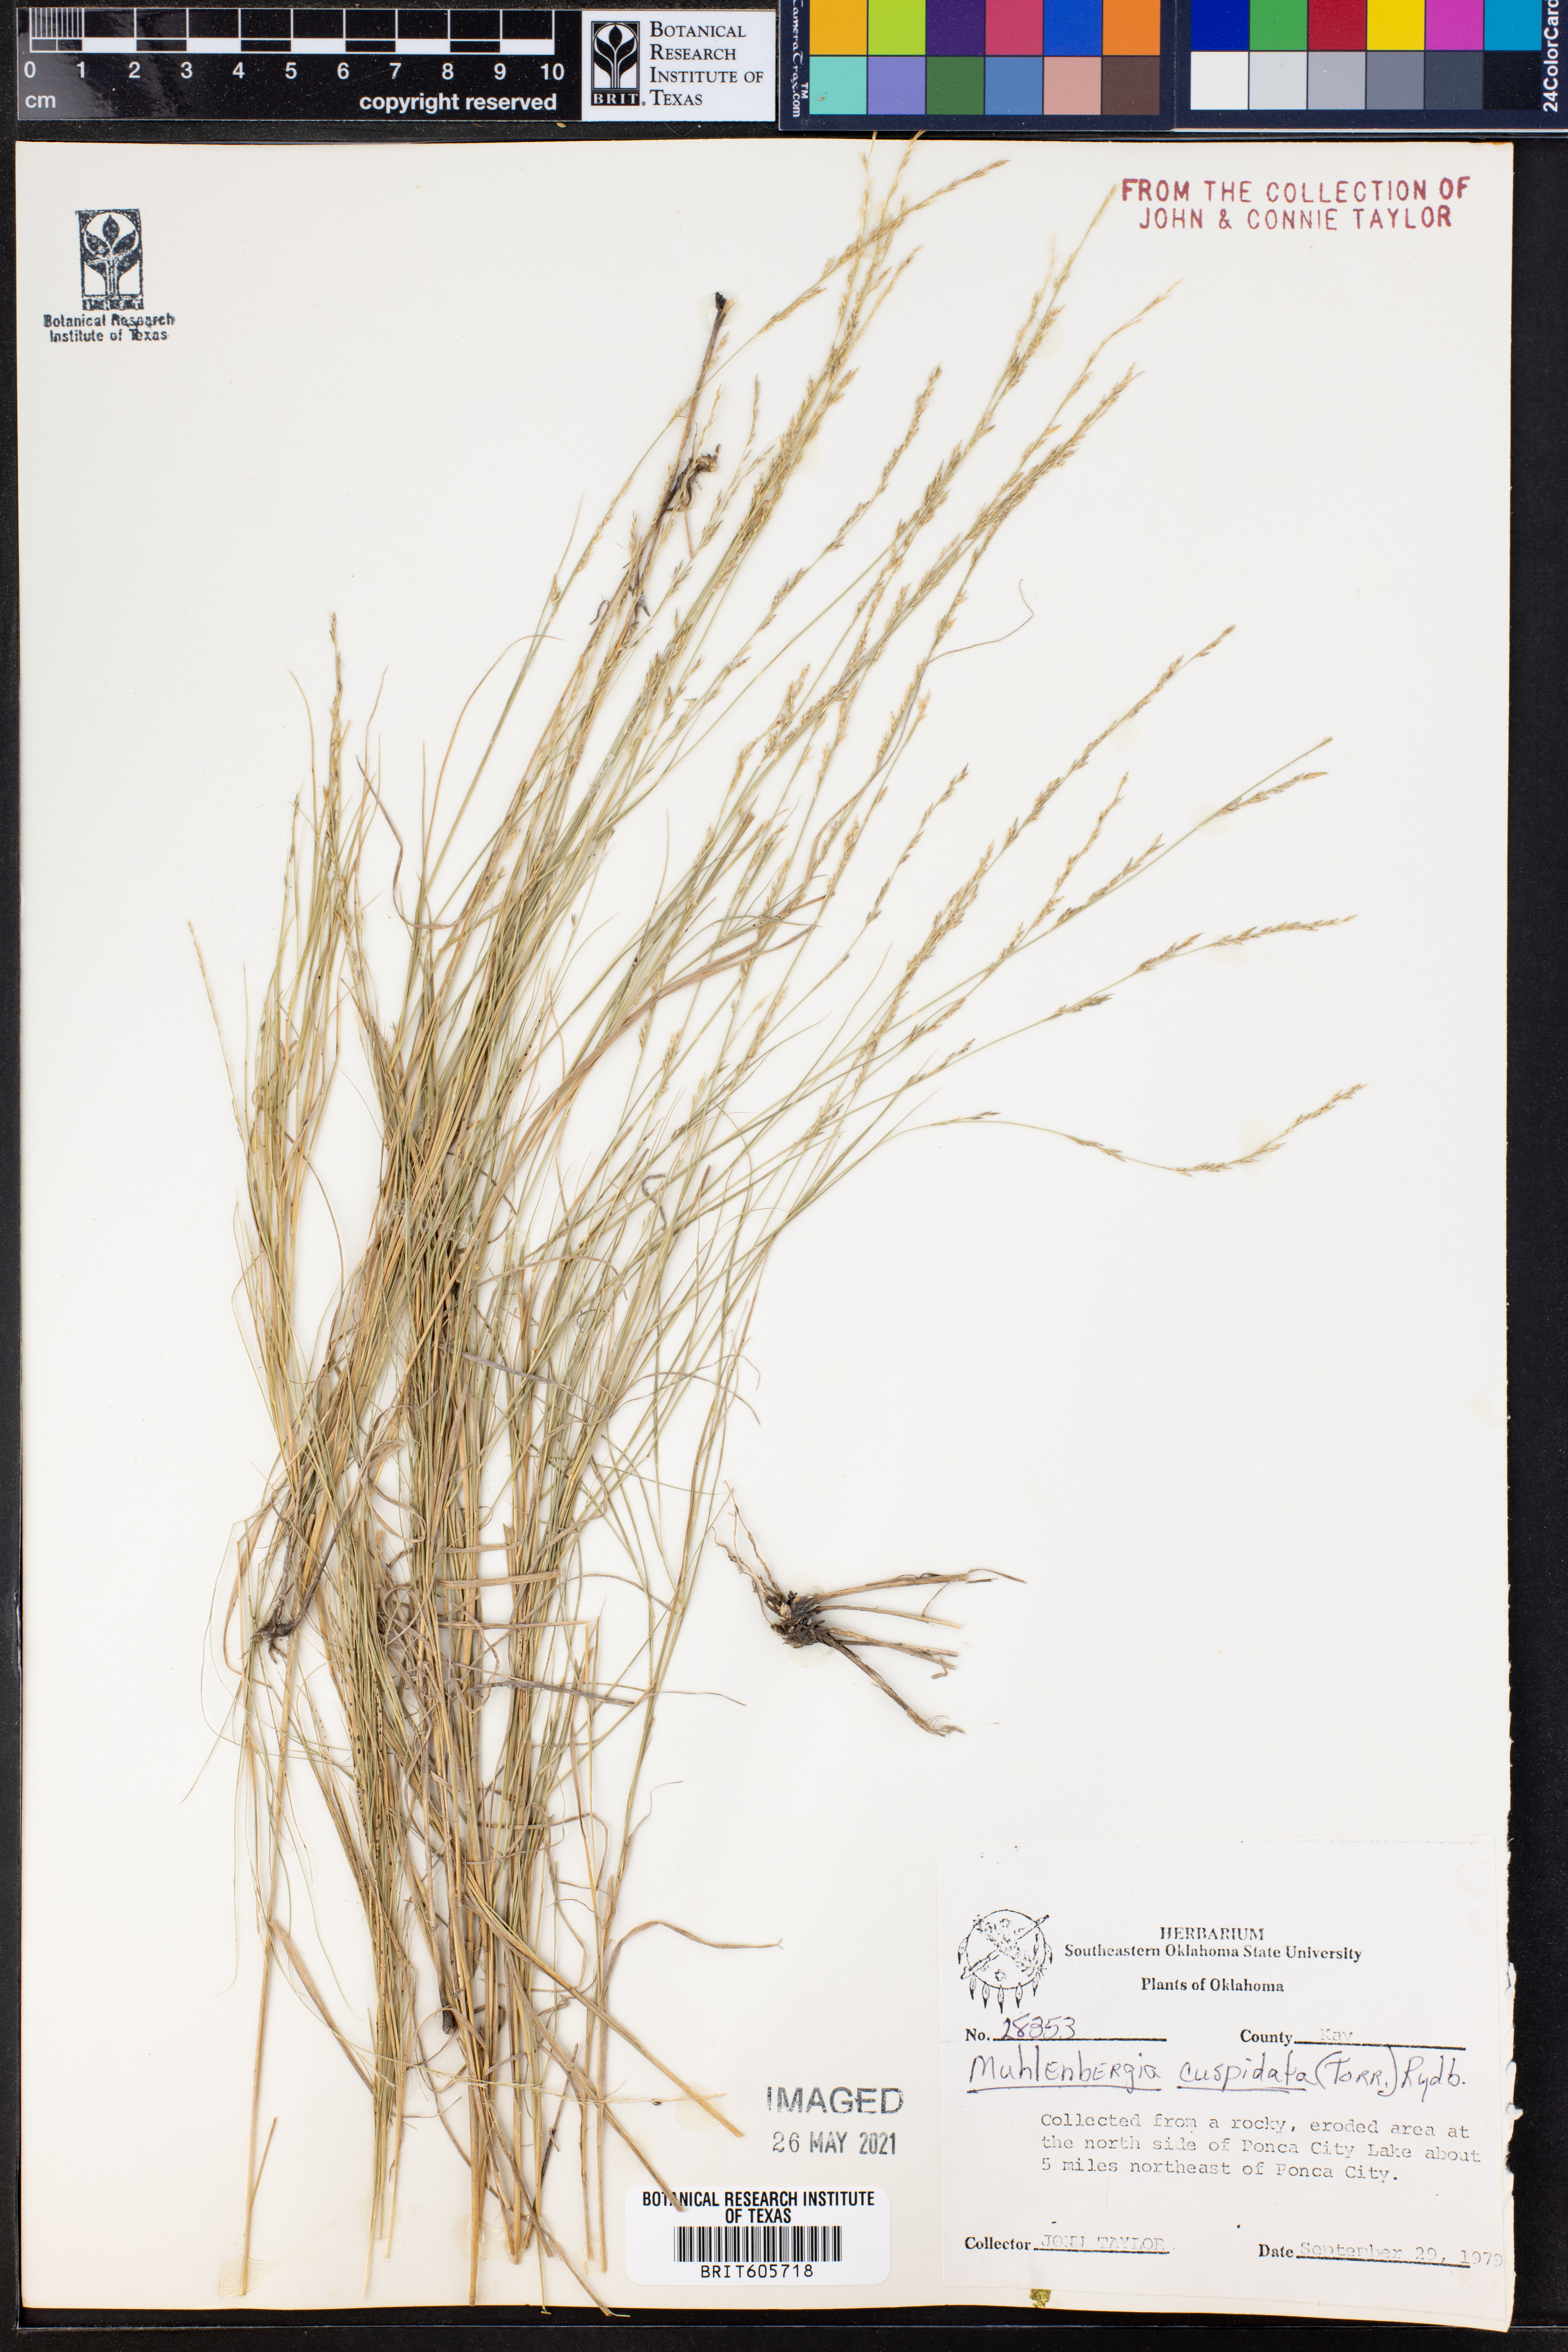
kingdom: Plantae
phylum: Tracheophyta
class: Liliopsida
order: Poales
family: Poaceae
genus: Muhlenbergia
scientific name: Muhlenbergia cuspidata
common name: Plains muhly
